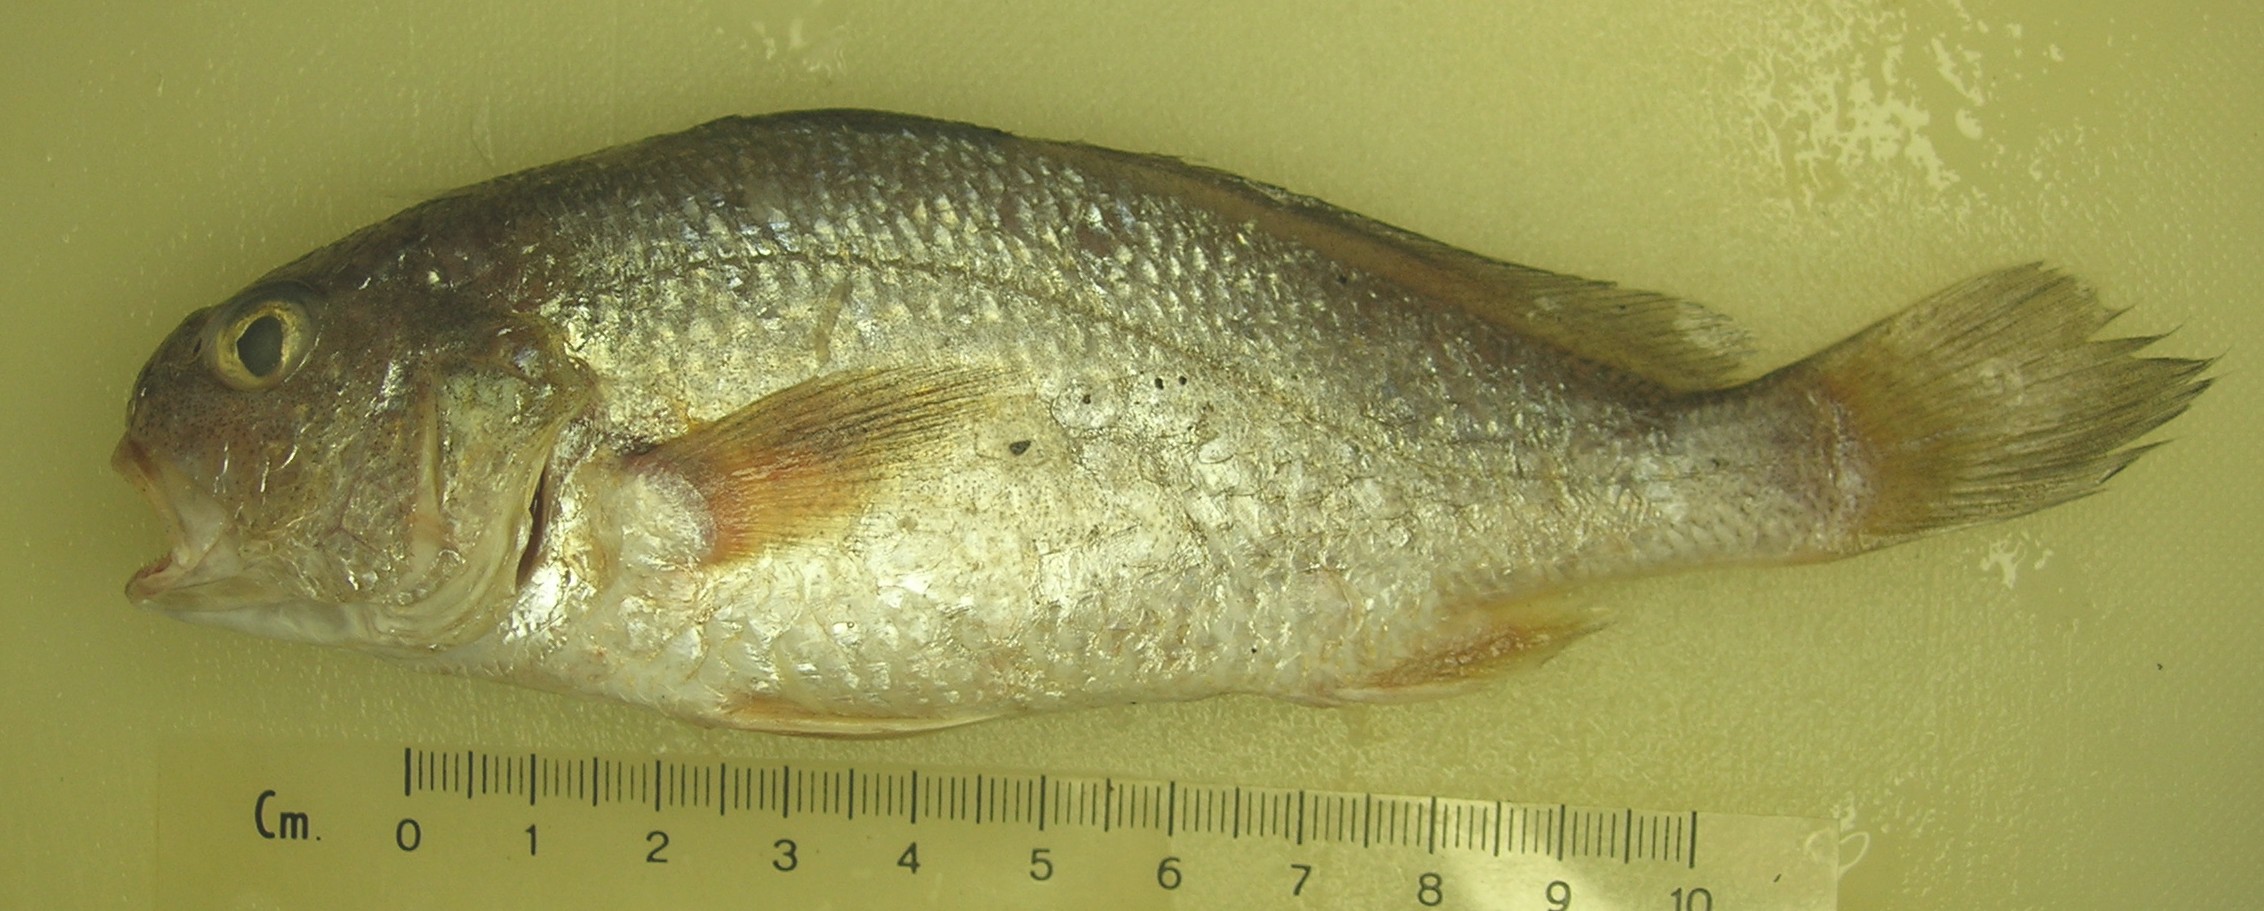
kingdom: Animalia
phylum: Chordata
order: Perciformes
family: Sciaenidae
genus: Johnius
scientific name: Johnius dorsalis
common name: Sharp-tooth jewfish
